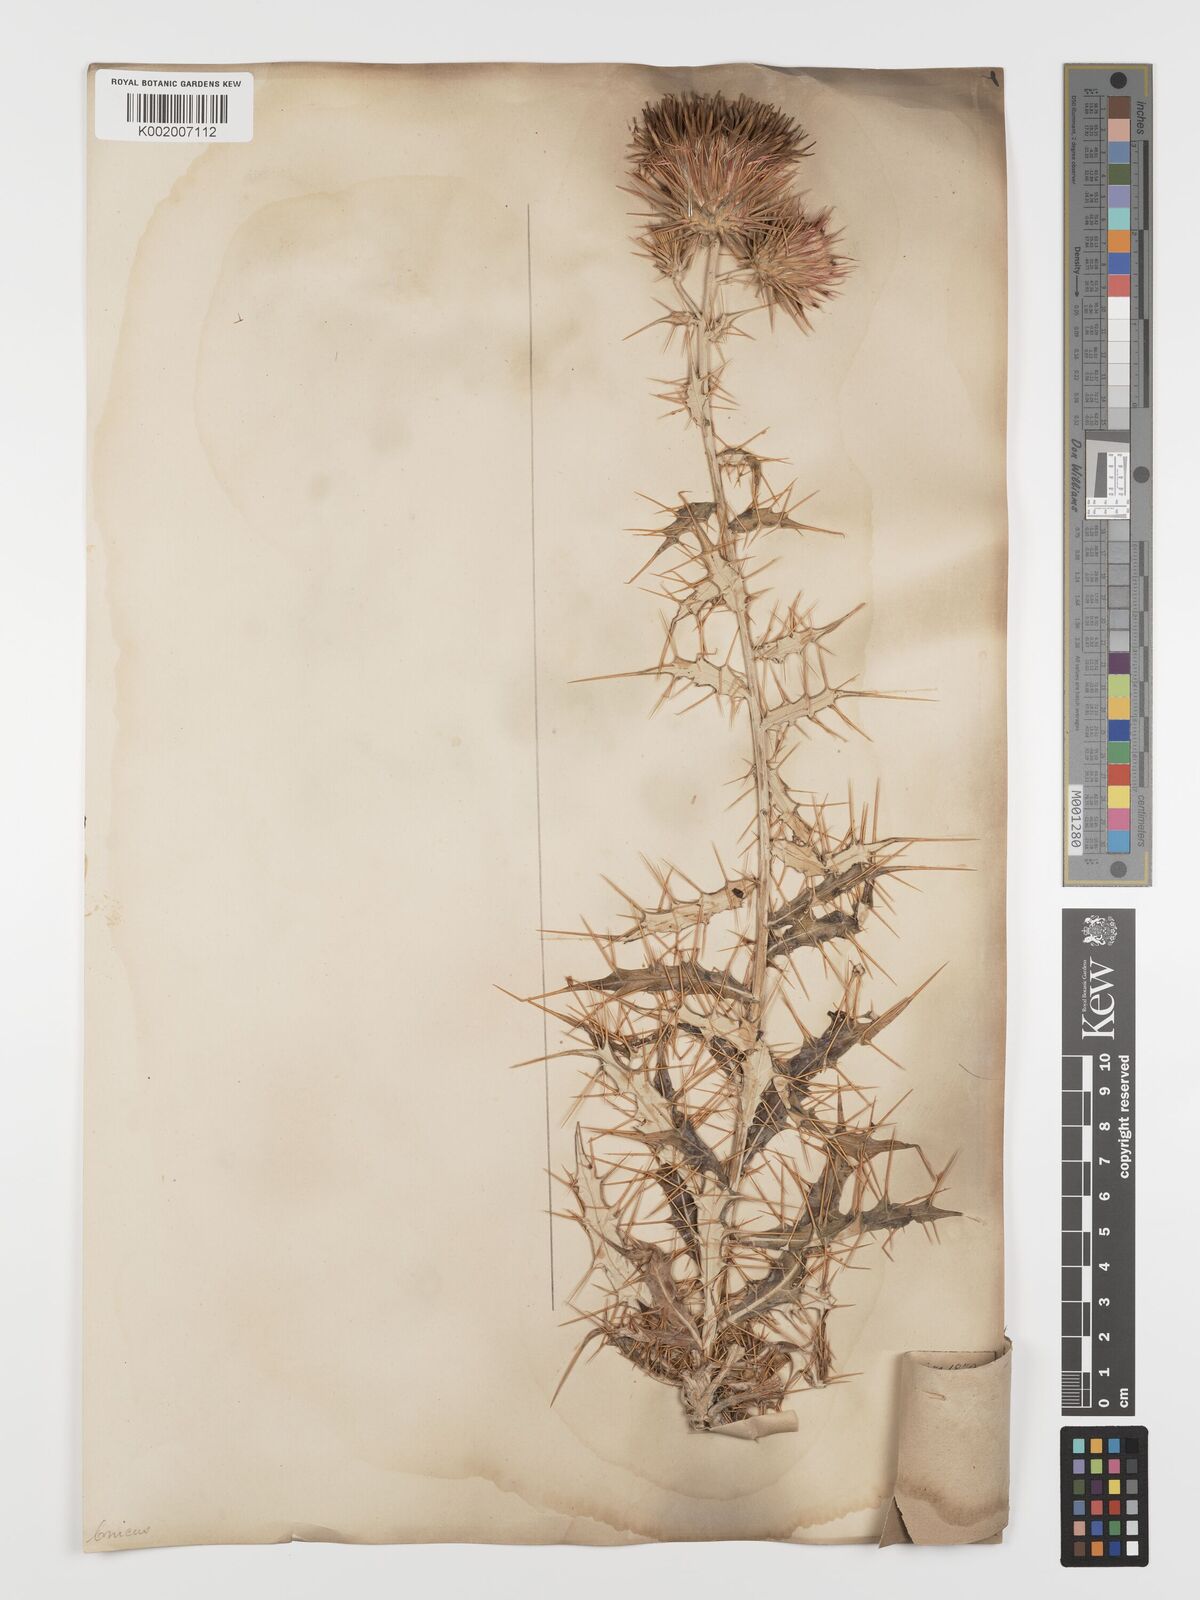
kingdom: Plantae
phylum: Tracheophyta
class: Magnoliopsida
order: Asterales
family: Asteraceae
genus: Ptilostemon
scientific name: Ptilostemon hispanicus
